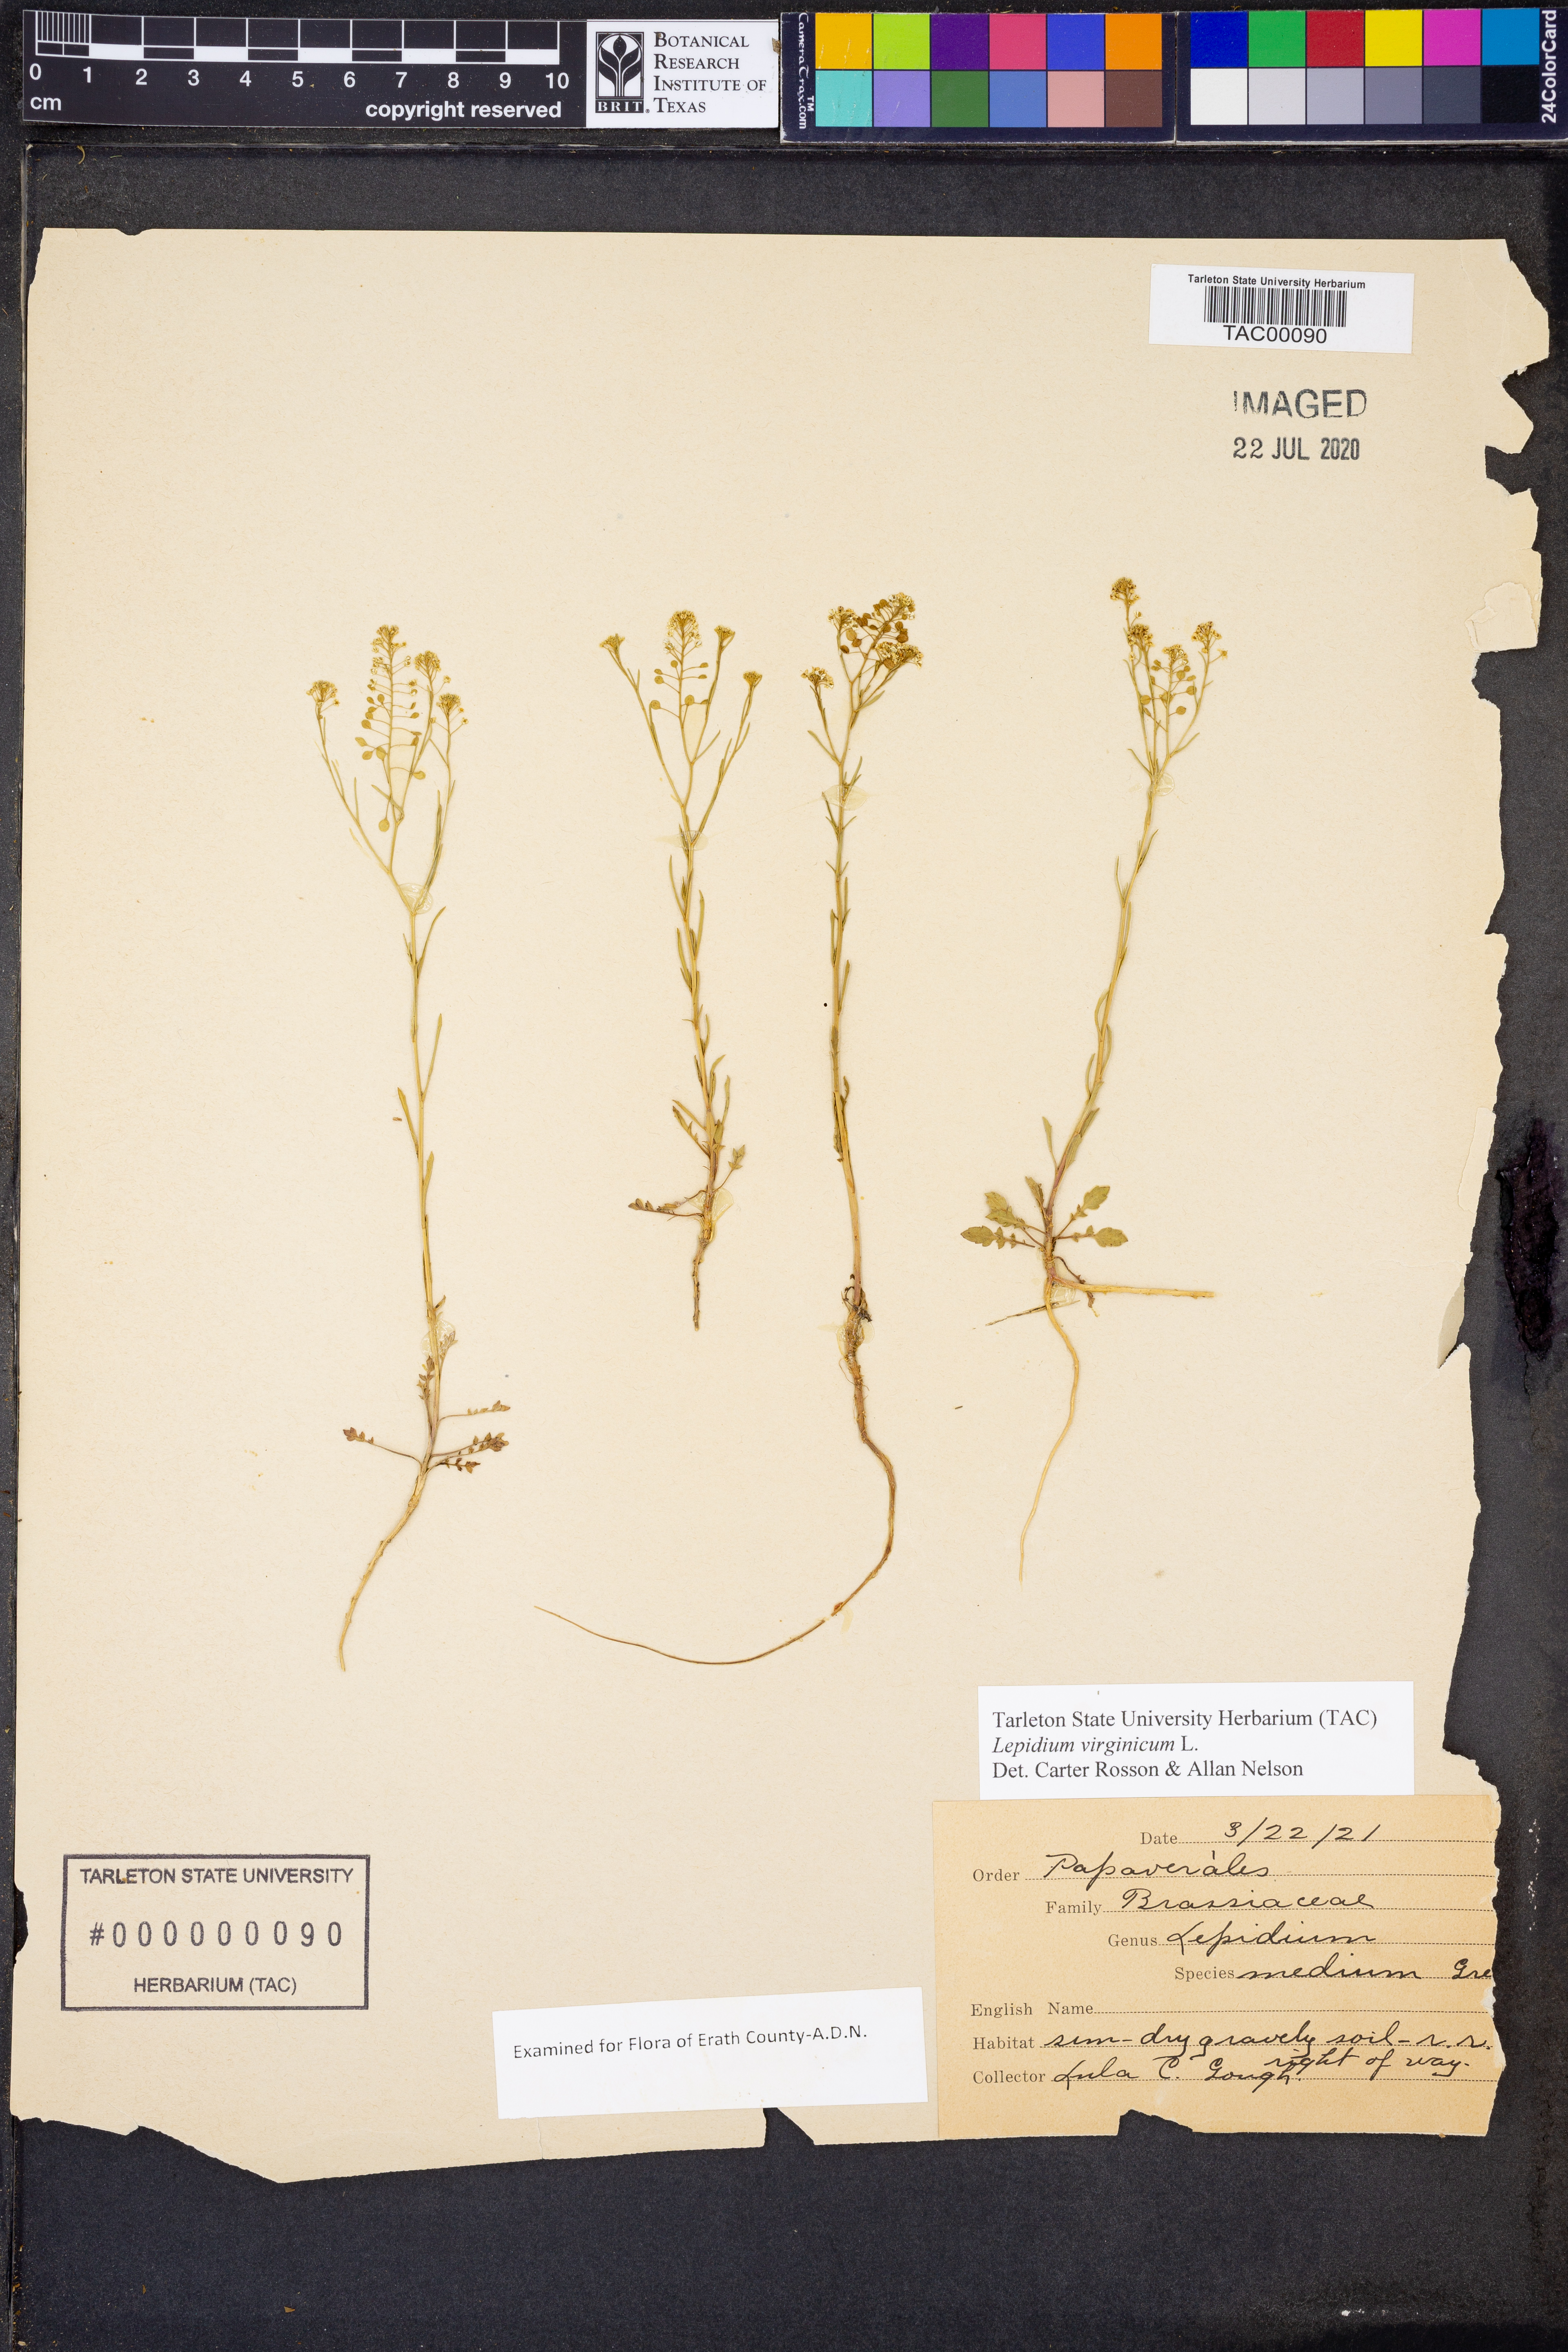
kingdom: Plantae
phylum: Tracheophyta
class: Magnoliopsida
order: Brassicales
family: Brassicaceae
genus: Lepidium
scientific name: Lepidium virginicum
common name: Least pepperwort
